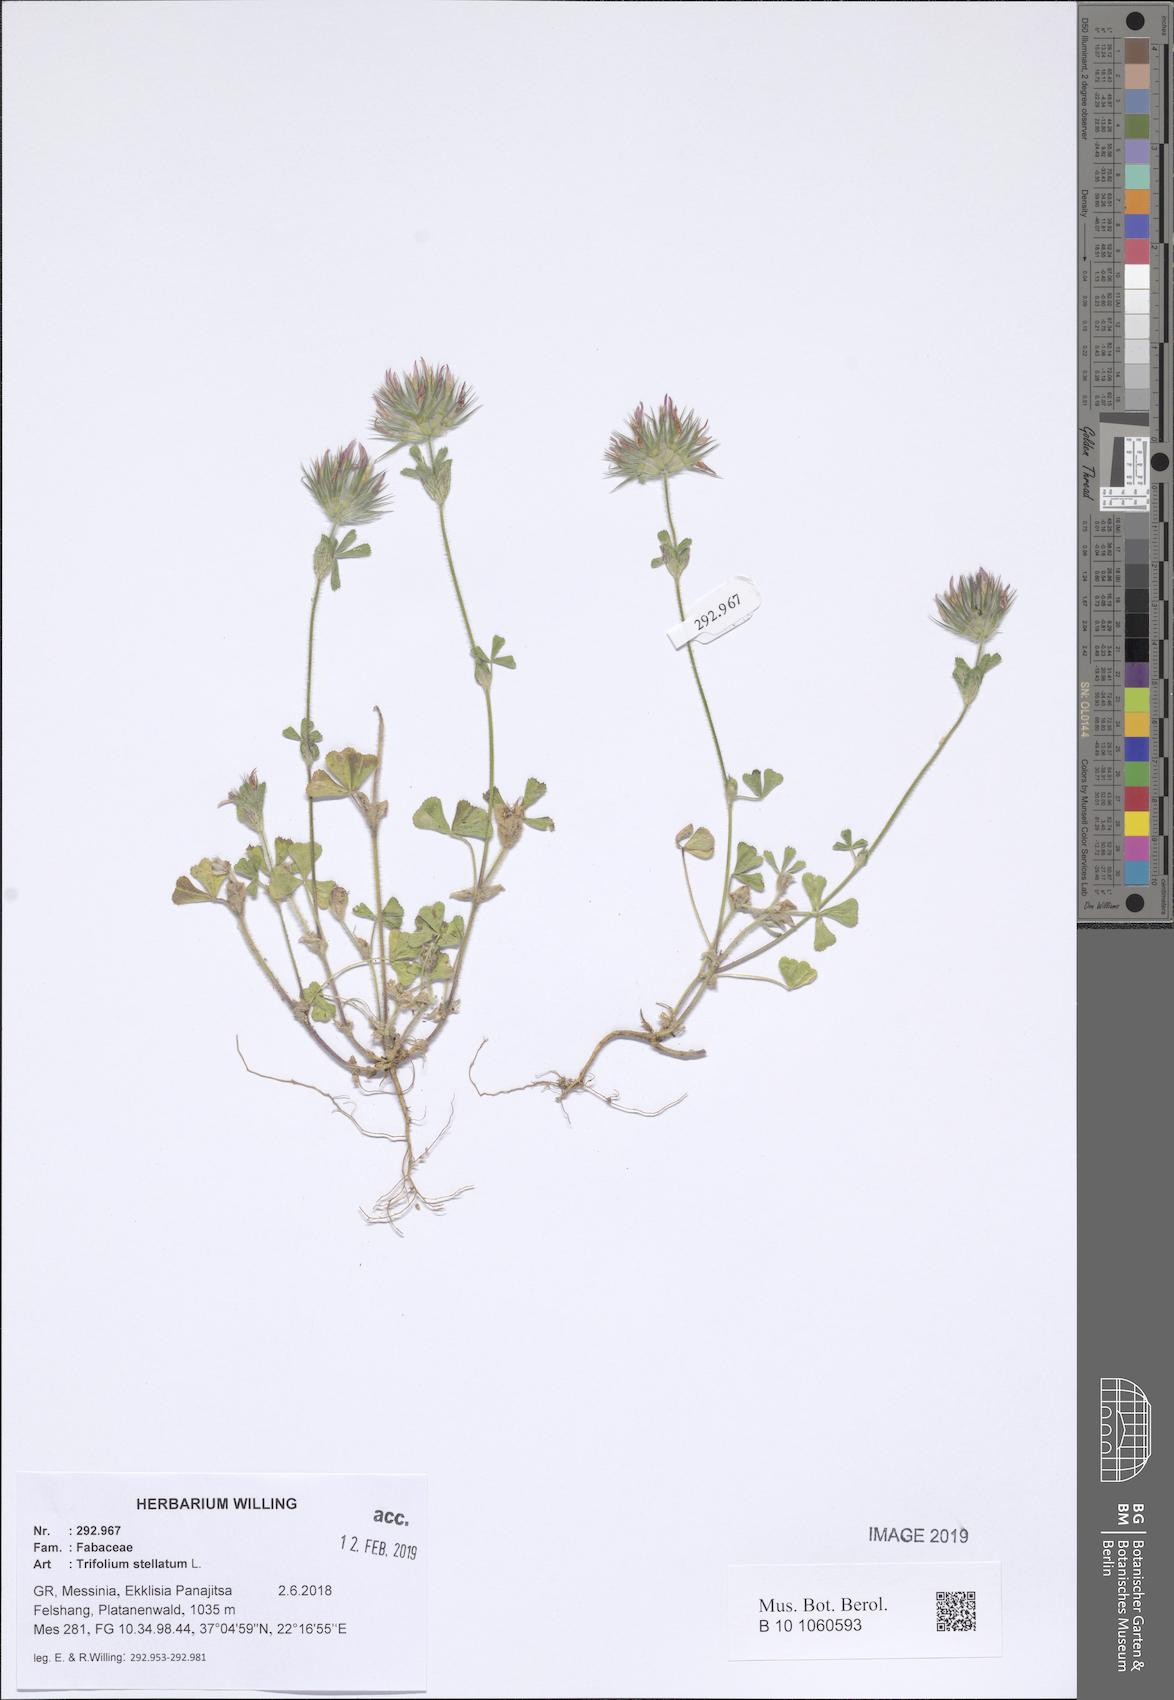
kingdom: Plantae
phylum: Tracheophyta
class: Magnoliopsida
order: Fabales
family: Fabaceae
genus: Trifolium
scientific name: Trifolium stellatum
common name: Starry clover
